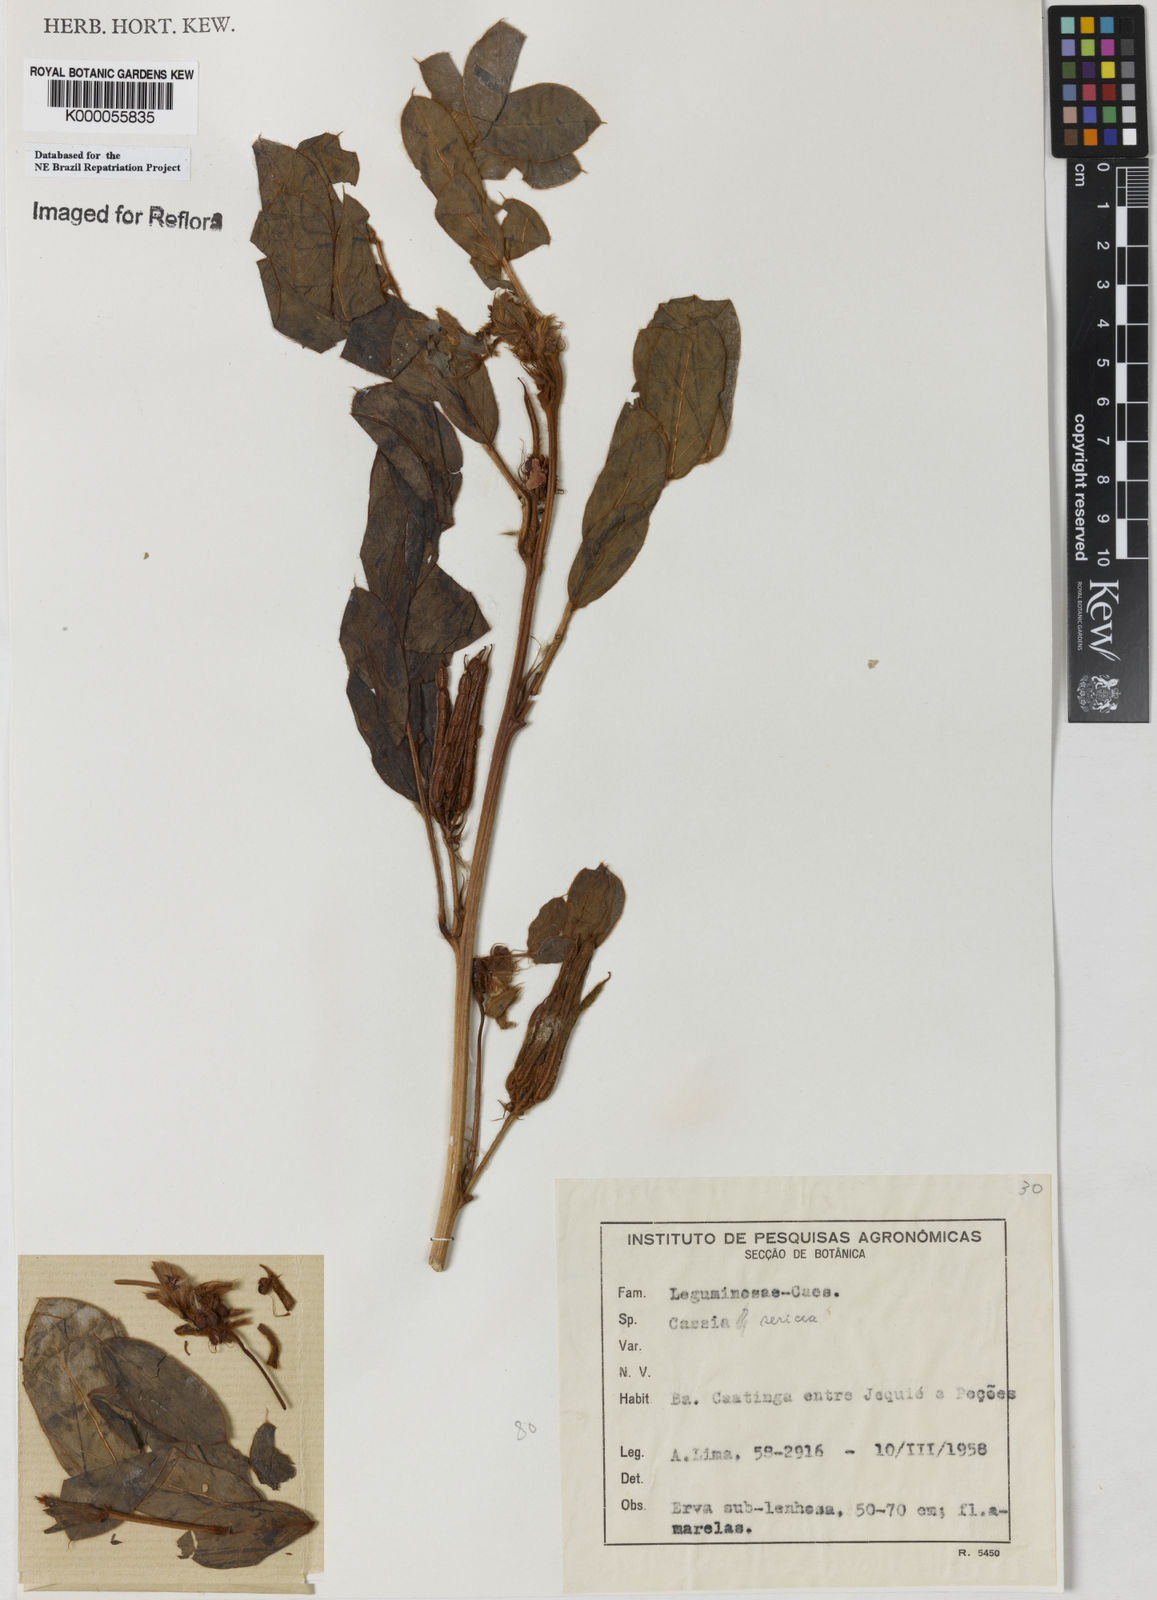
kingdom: Plantae
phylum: Tracheophyta
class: Magnoliopsida
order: Fabales
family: Fabaceae
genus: Senna
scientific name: Senna uniflora
